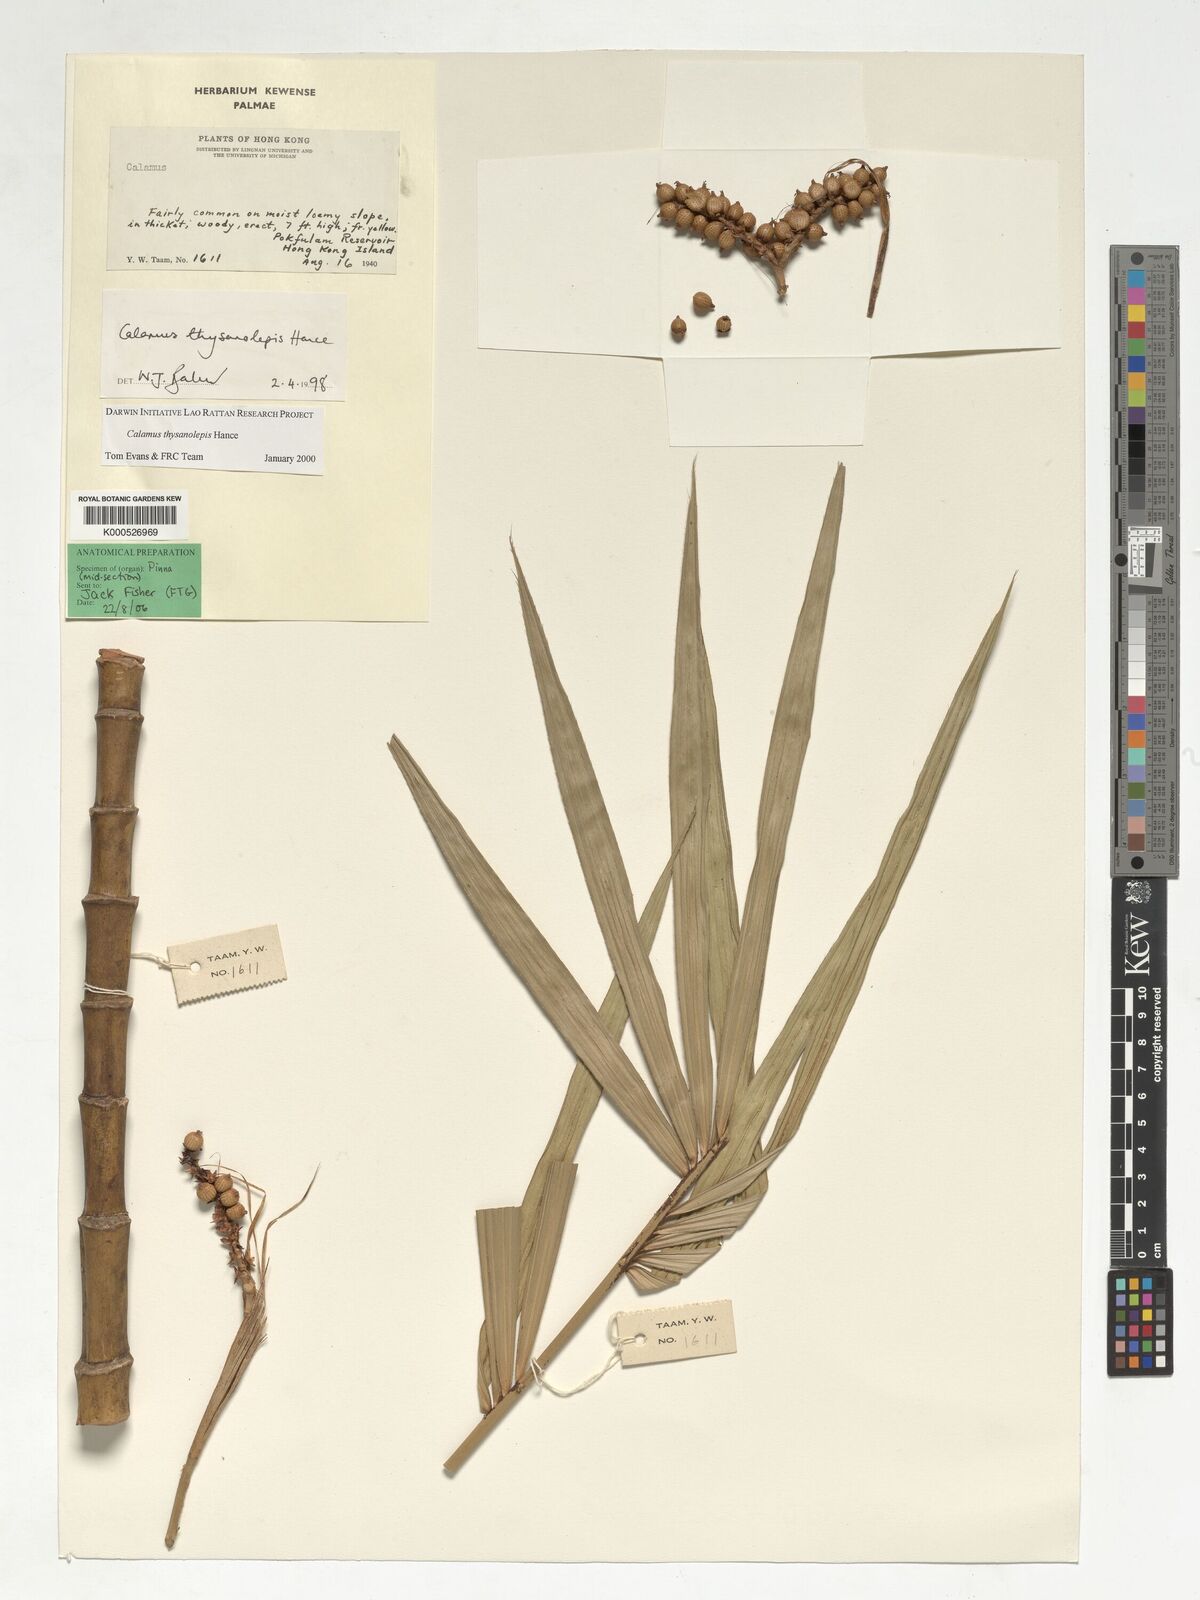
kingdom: Plantae
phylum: Tracheophyta
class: Liliopsida
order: Arecales
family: Arecaceae
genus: Calamus
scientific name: Calamus thysanolepis
